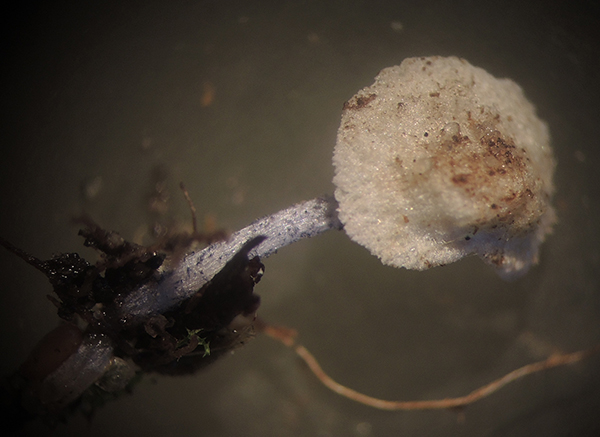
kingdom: Fungi
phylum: Basidiomycota
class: Agaricomycetes
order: Agaricales
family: Entolomataceae
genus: Entoloma
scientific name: Entoloma dichroum
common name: tvefarvet rødblad
